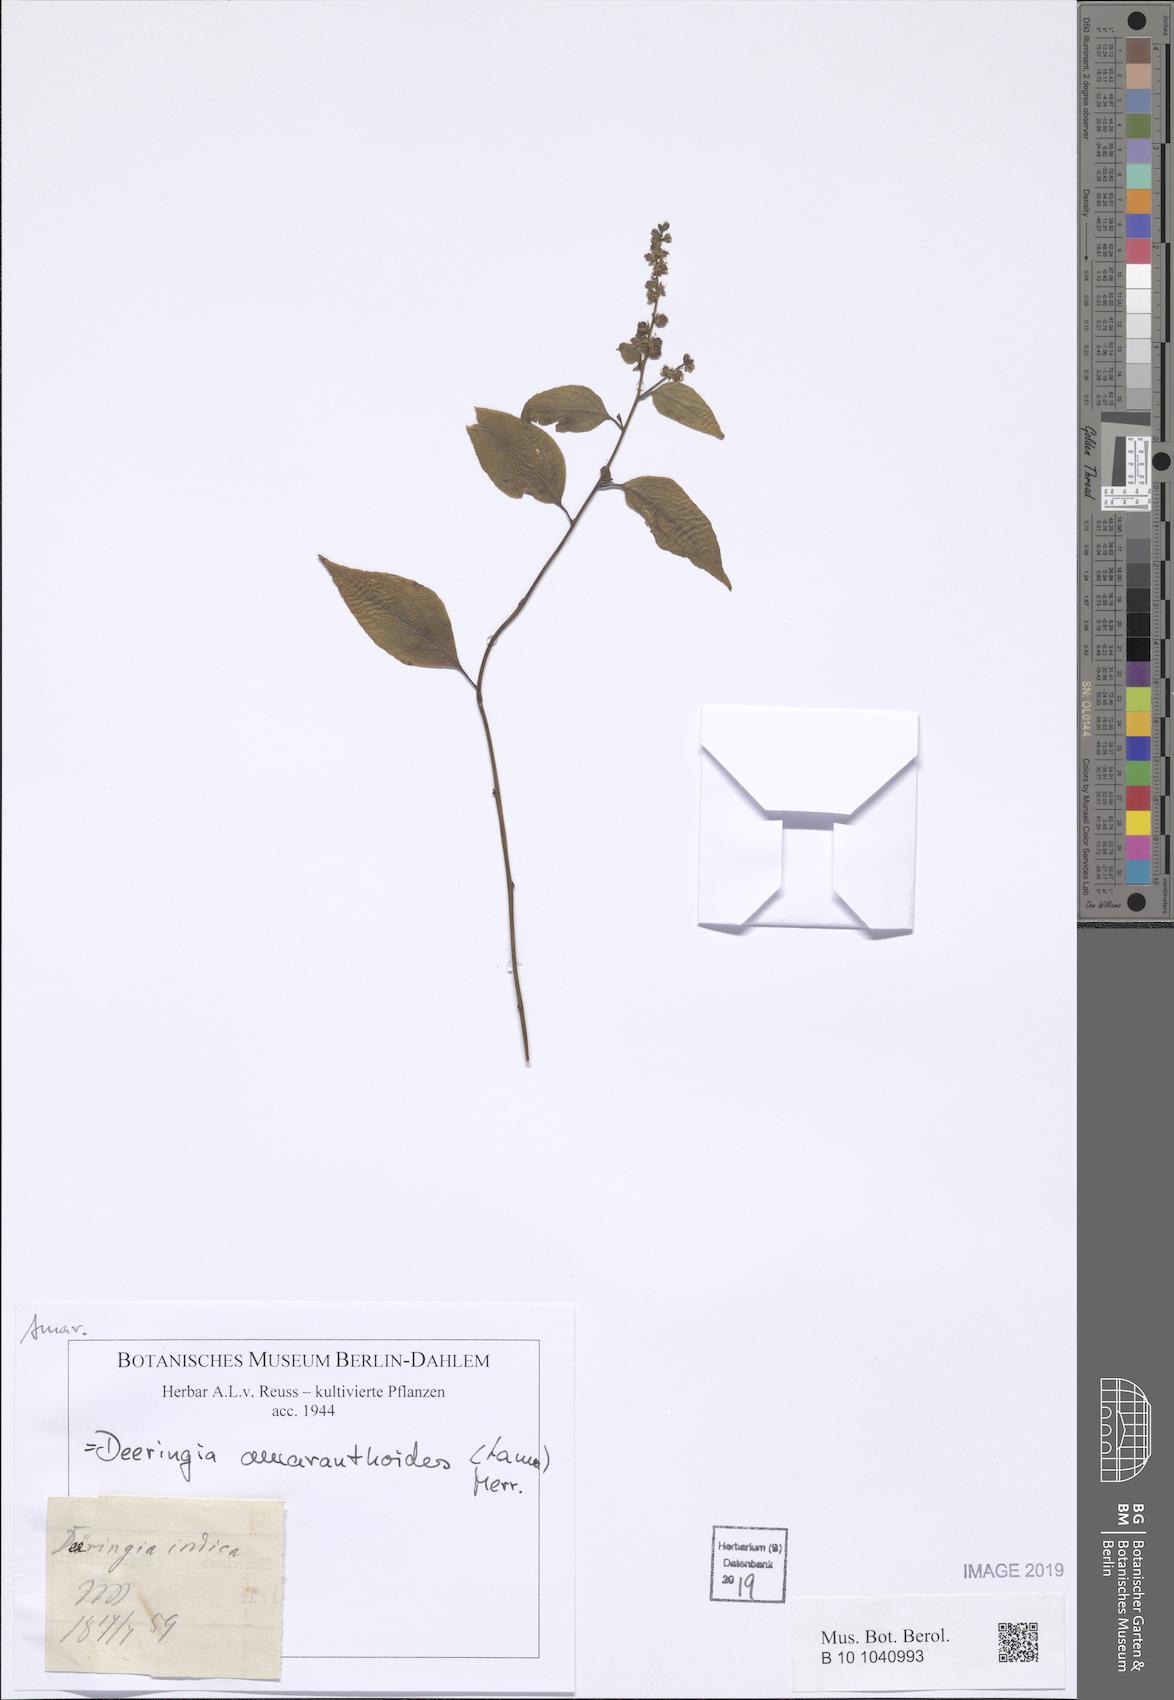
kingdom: Plantae
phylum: Tracheophyta
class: Magnoliopsida
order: Caryophyllales
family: Amaranthaceae
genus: Deeringia
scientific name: Deeringia amaranthoides
